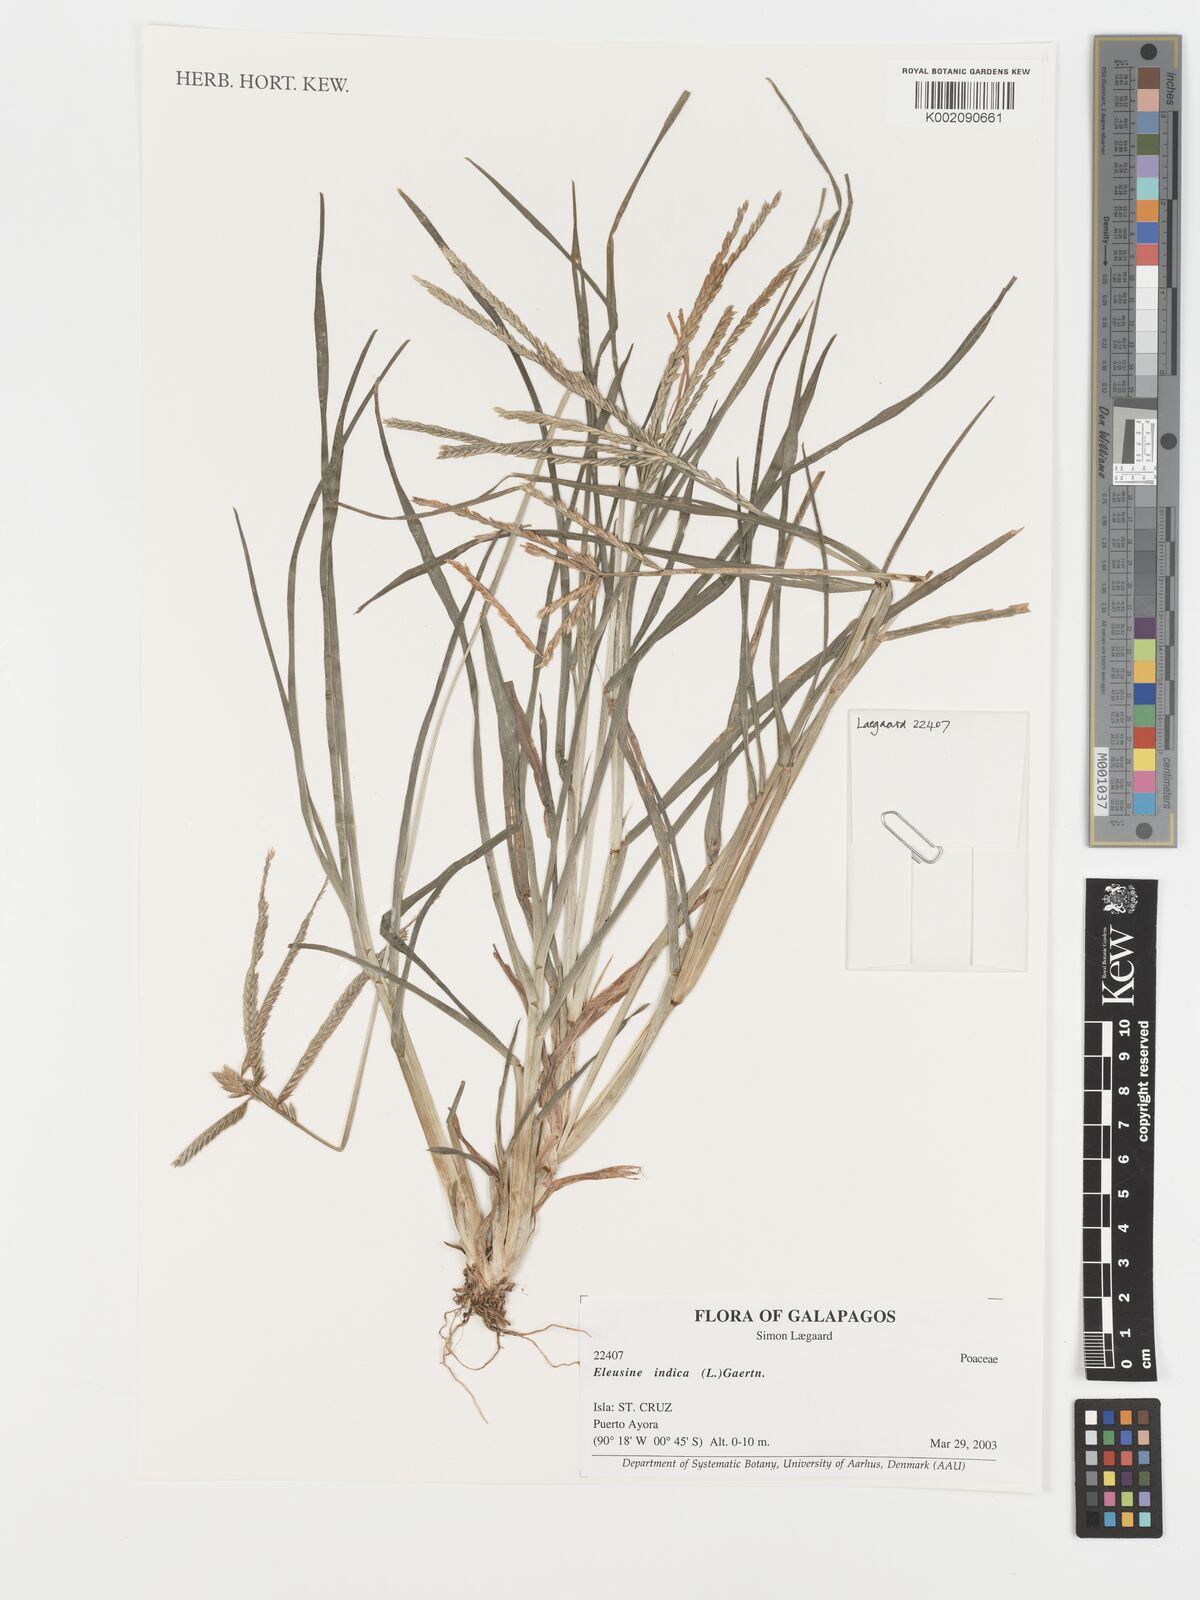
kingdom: Plantae
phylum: Tracheophyta
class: Liliopsida
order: Poales
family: Poaceae
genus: Eleusine
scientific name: Eleusine indica
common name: Yard-grass
